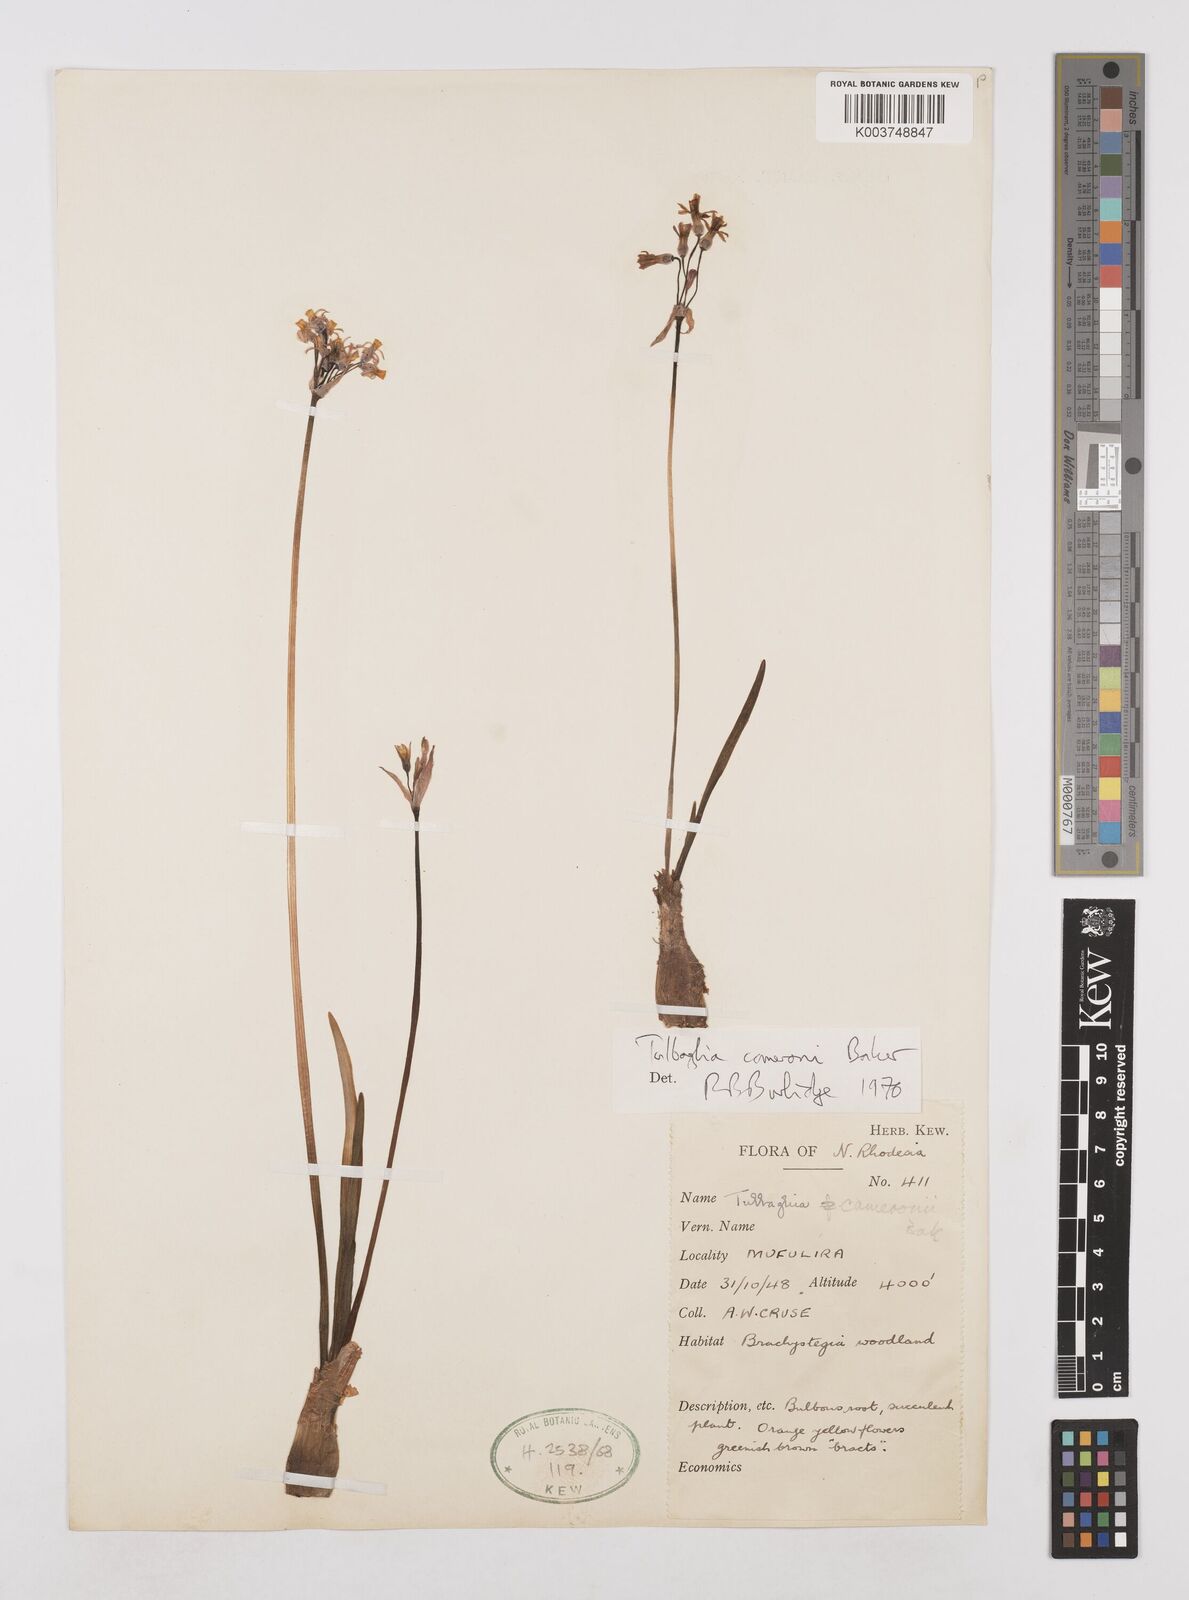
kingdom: Plantae
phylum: Tracheophyta
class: Liliopsida
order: Asparagales
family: Amaryllidaceae
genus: Tulbaghia
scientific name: Tulbaghia cameronii
